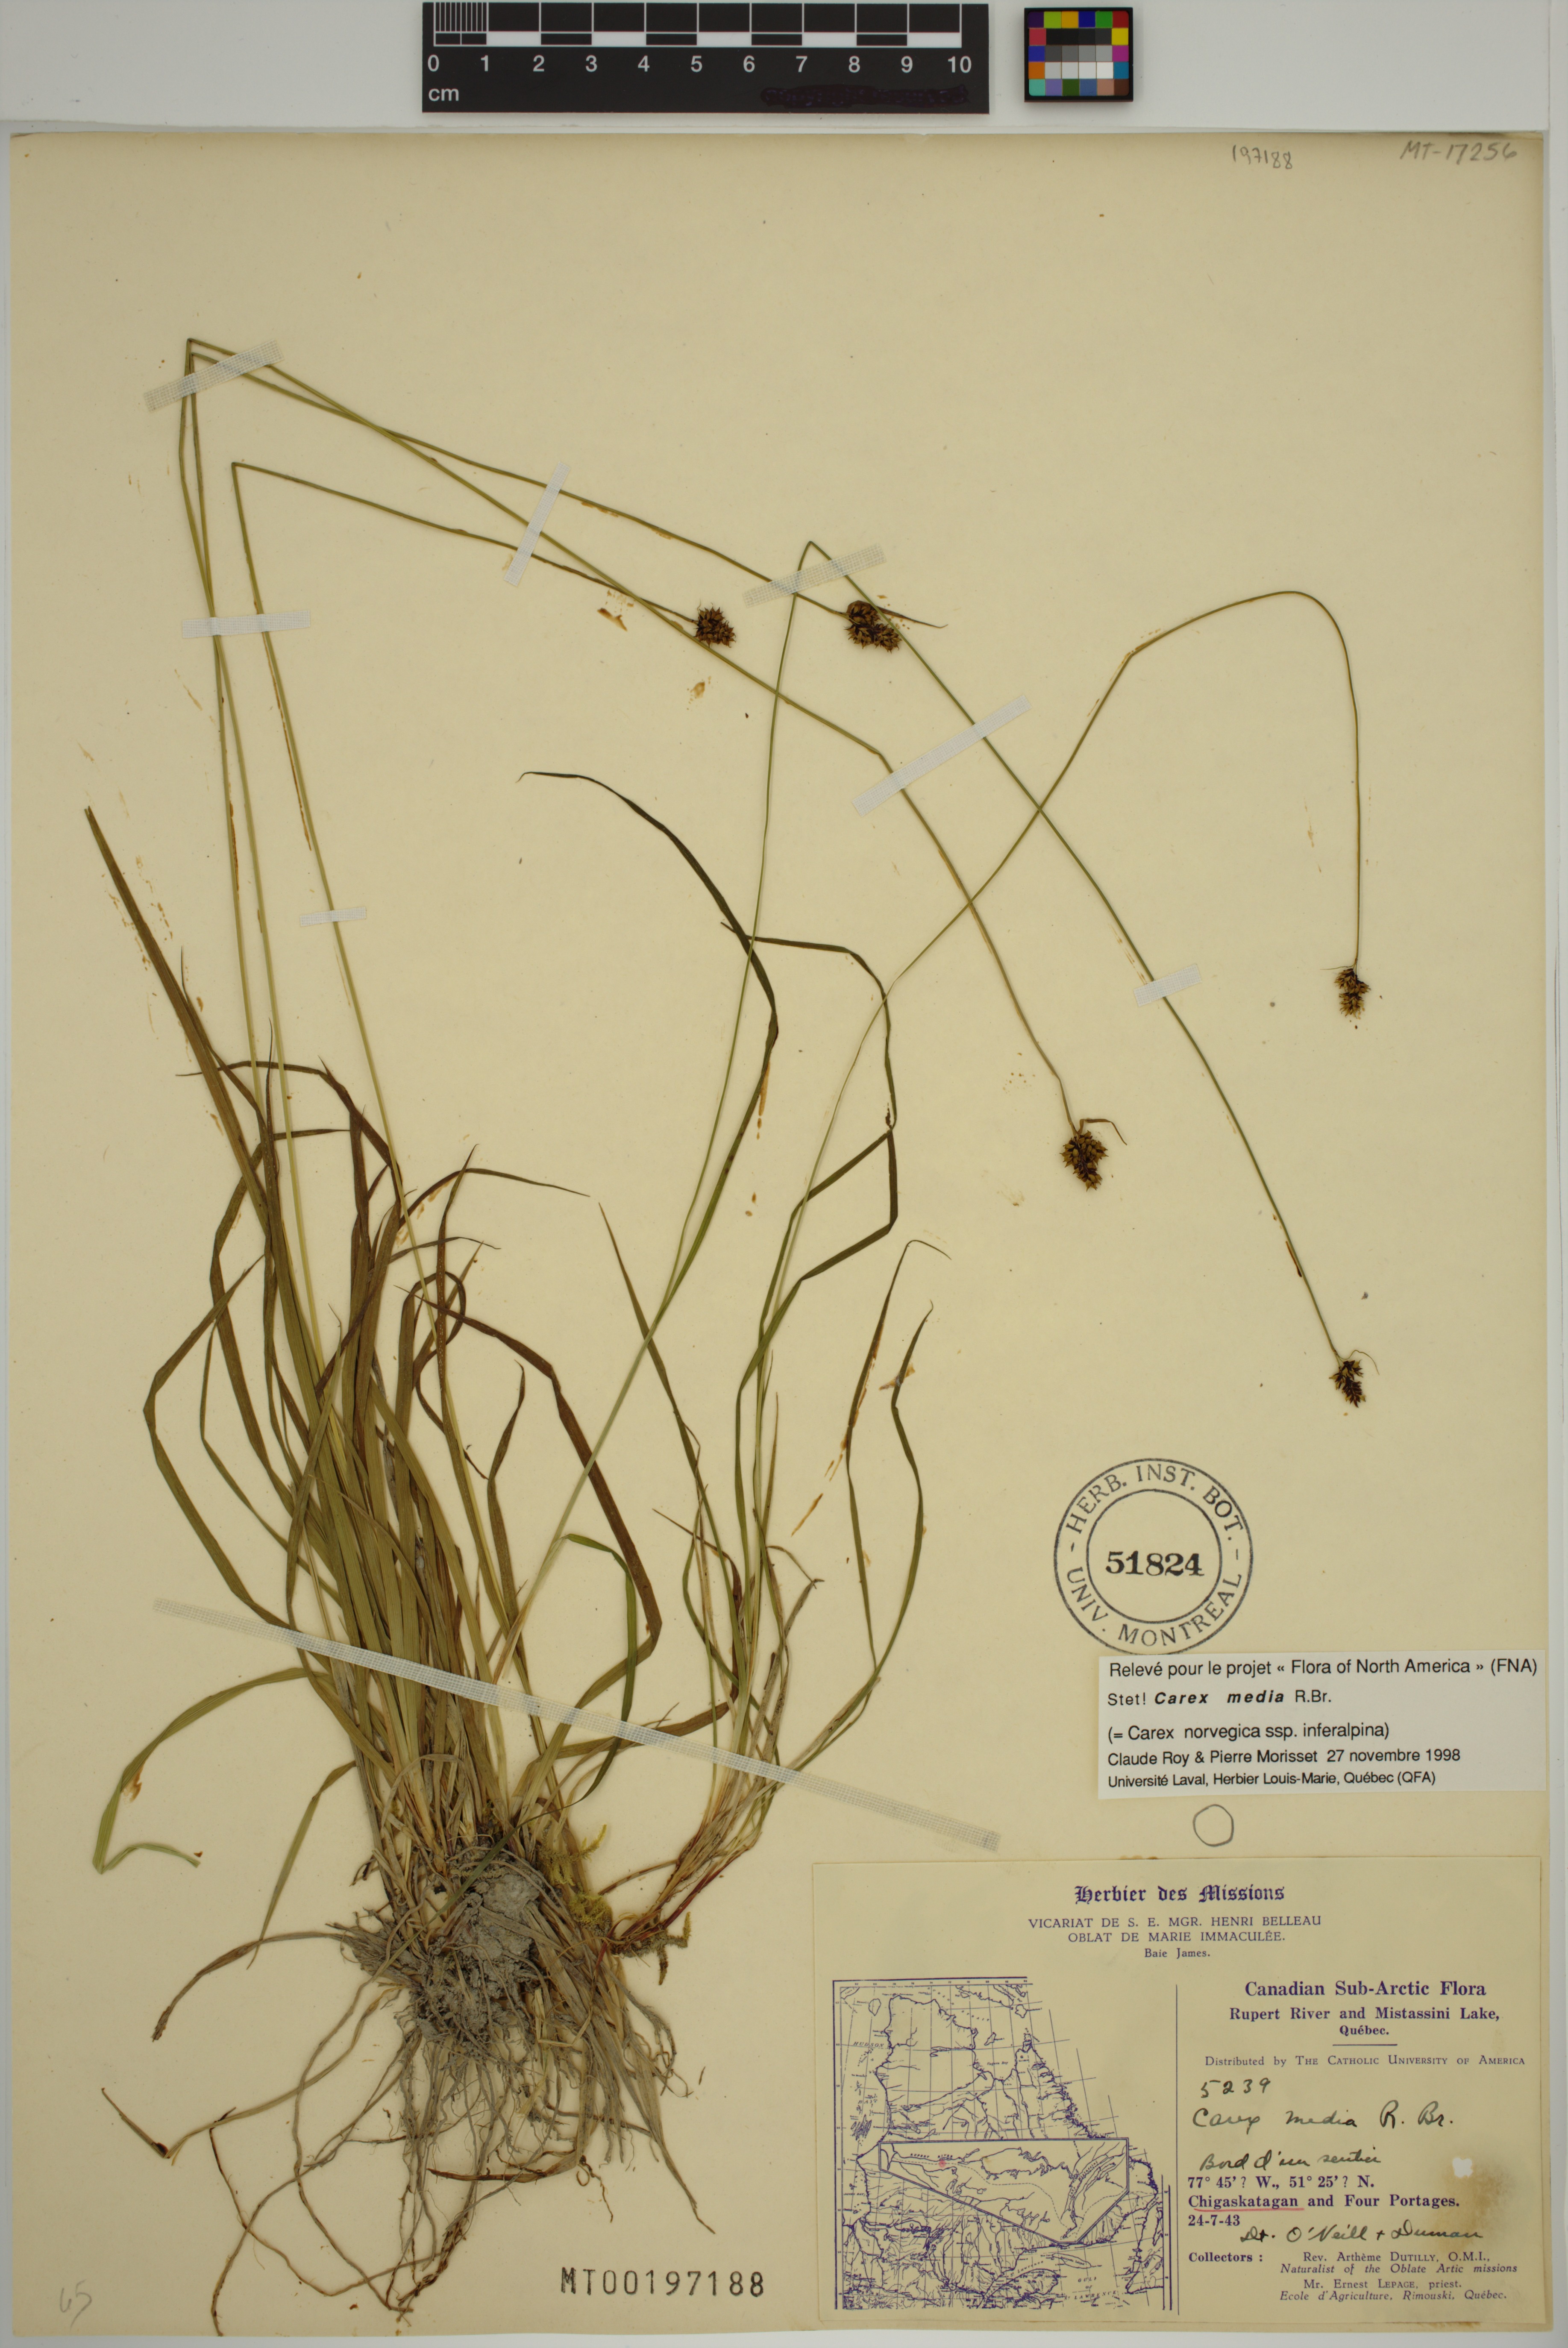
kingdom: Plantae
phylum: Tracheophyta
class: Liliopsida
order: Poales
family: Cyperaceae
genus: Carex
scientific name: Carex media
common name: Alpine sedge
